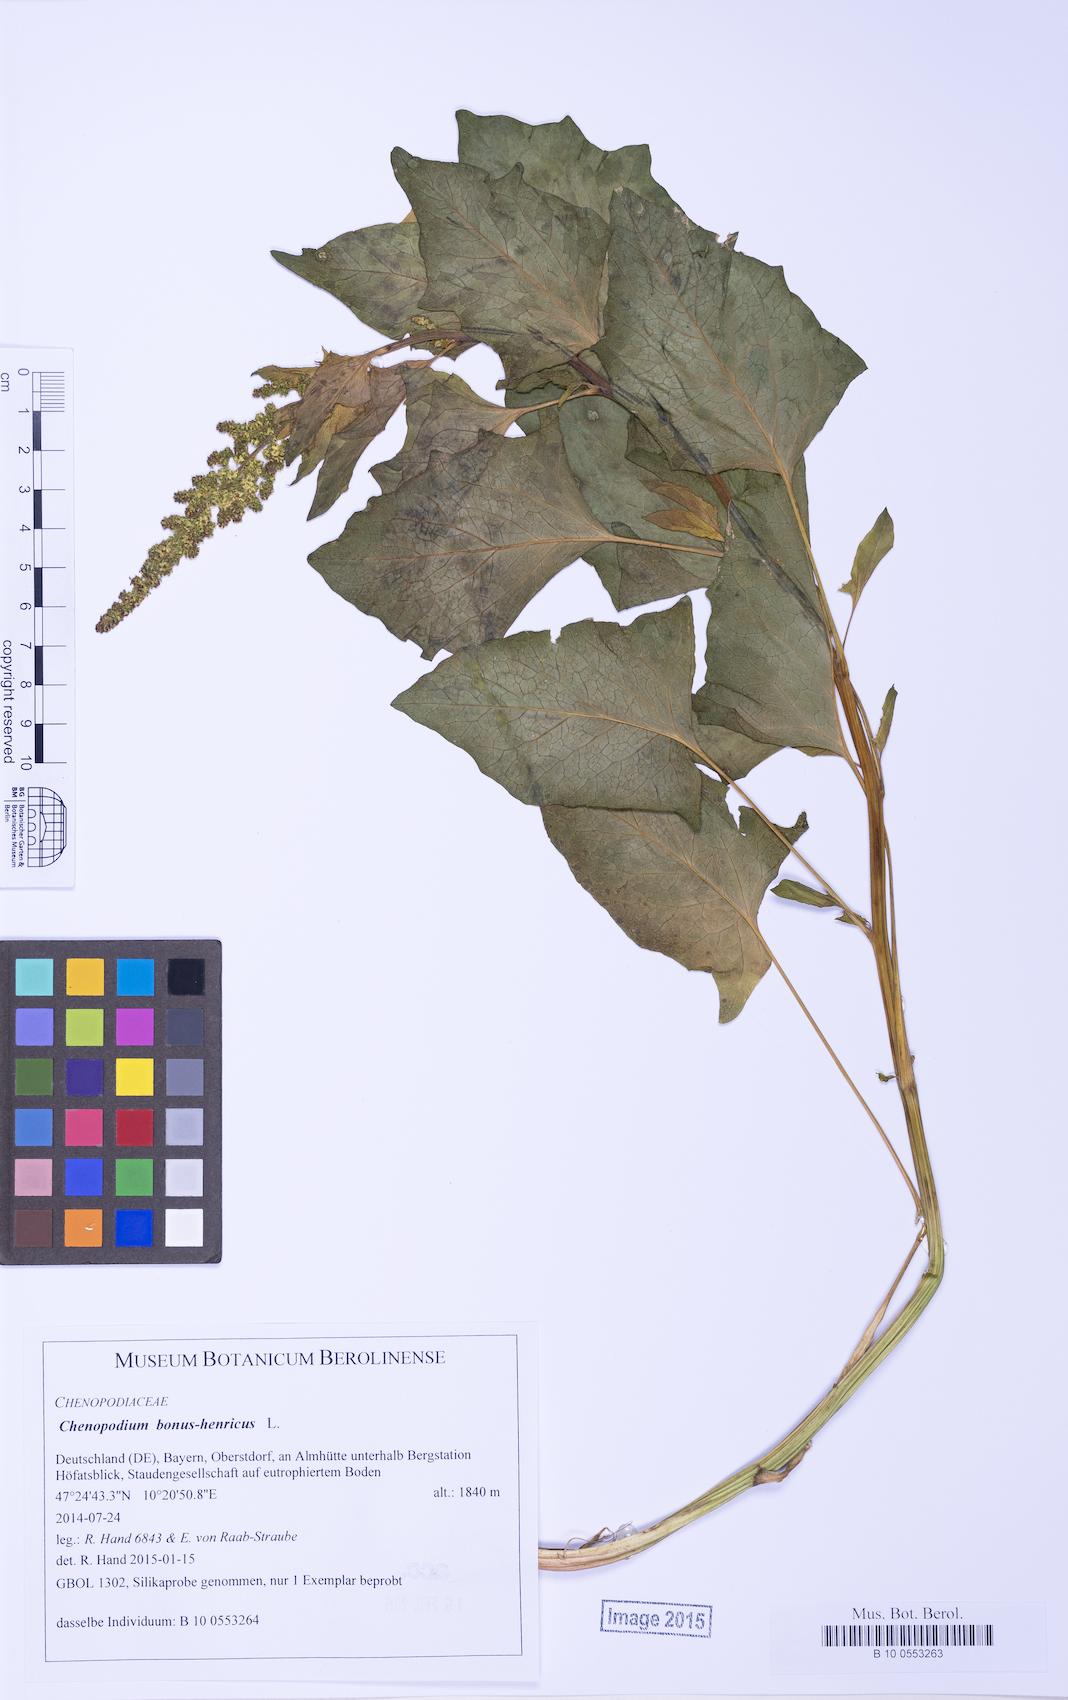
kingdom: Plantae
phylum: Tracheophyta
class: Magnoliopsida
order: Caryophyllales
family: Amaranthaceae
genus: Blitum
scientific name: Blitum bonus-henricus
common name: Good king henry
